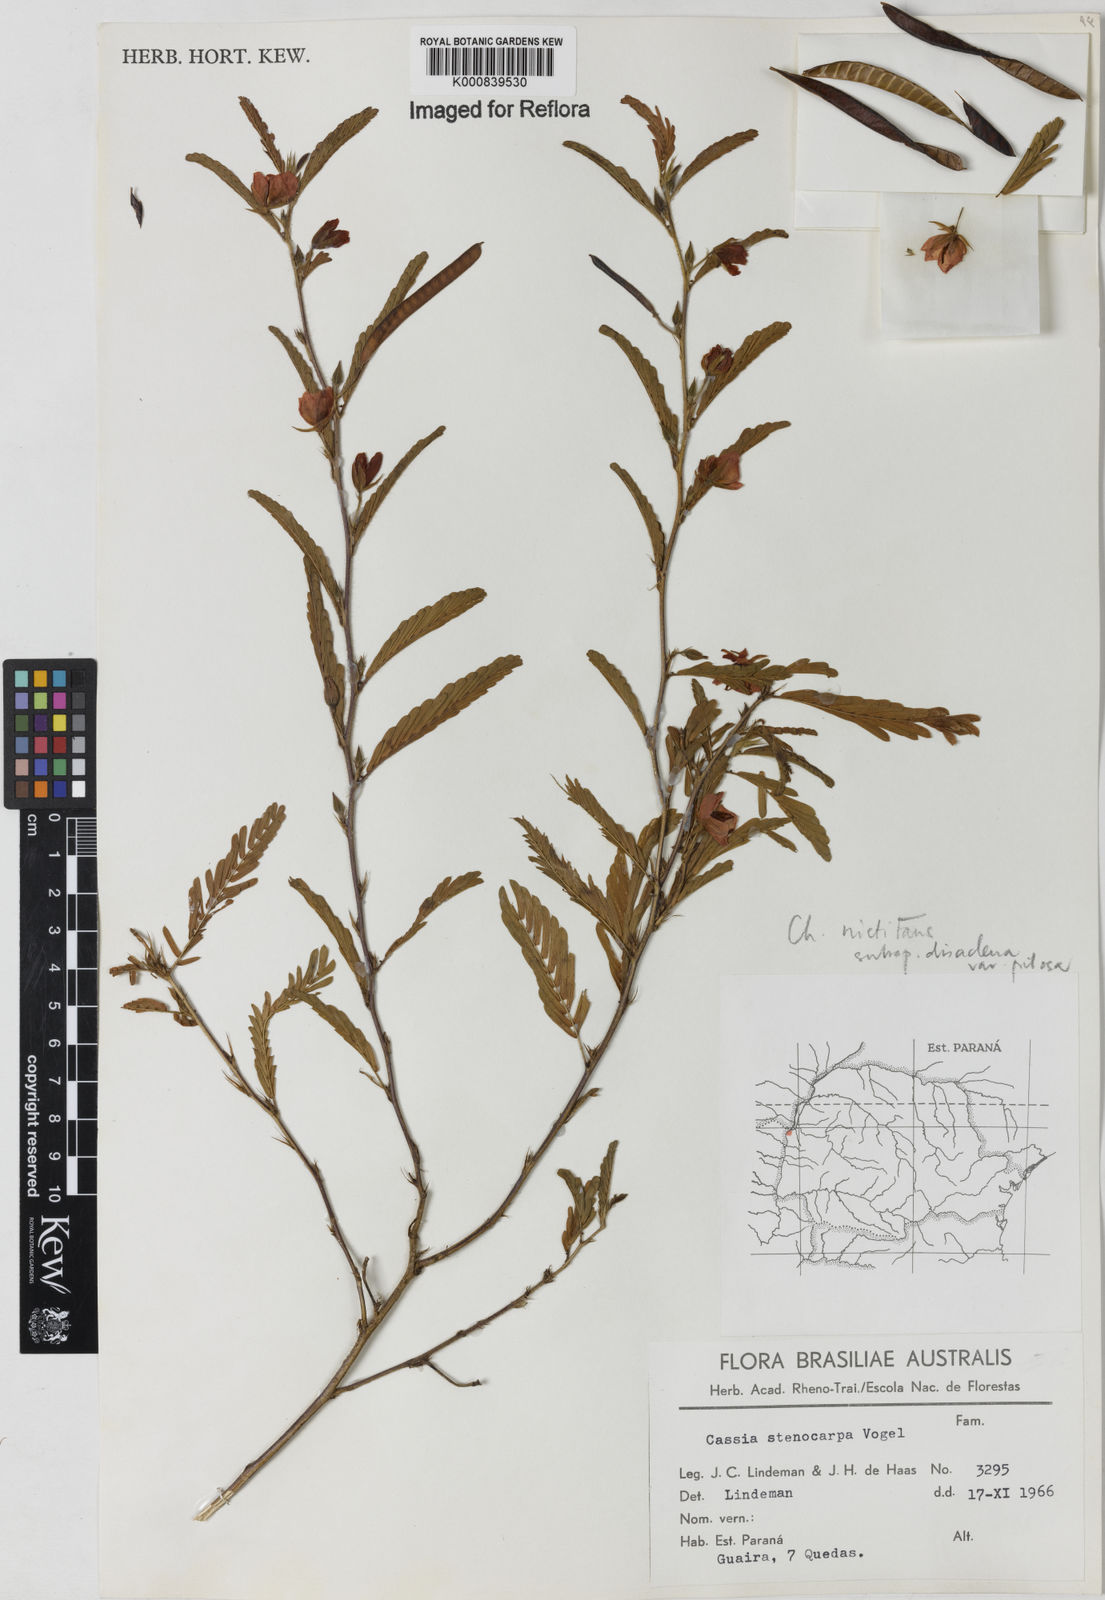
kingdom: Plantae
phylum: Tracheophyta
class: Magnoliopsida
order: Fabales
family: Fabaceae
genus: Chamaecrista
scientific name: Chamaecrista nictitans
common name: Sensitive cassia
